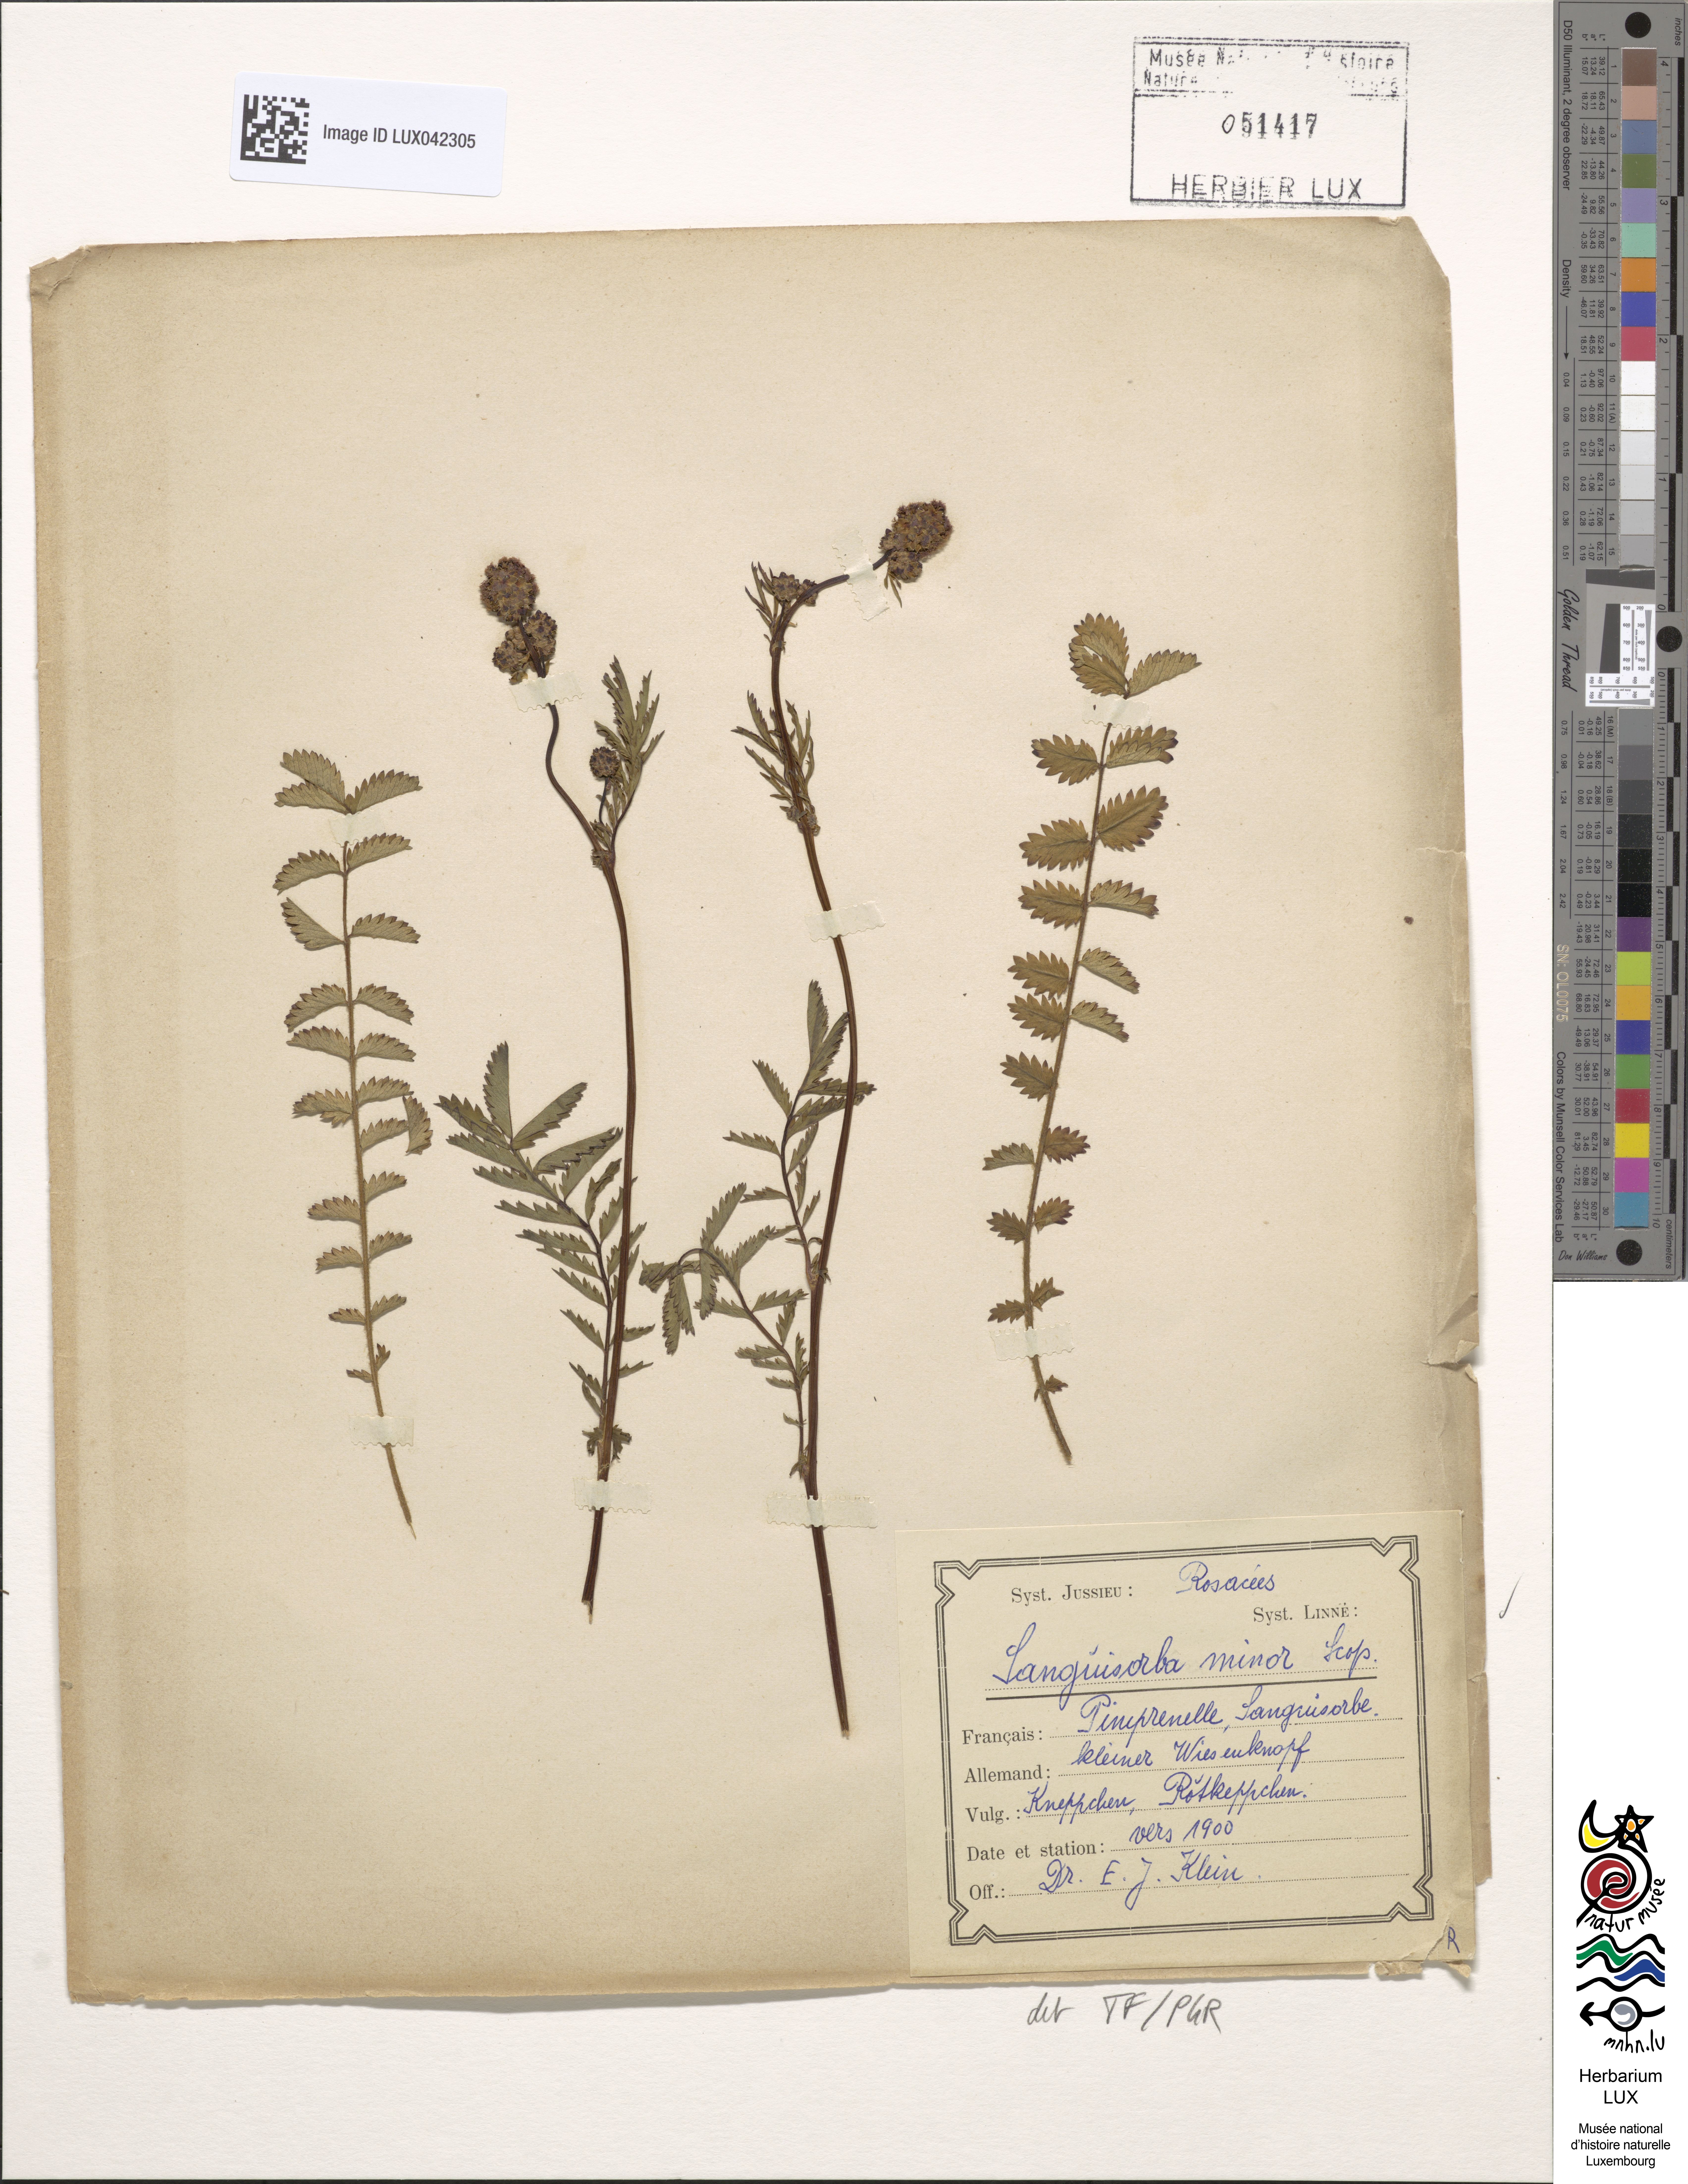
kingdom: Plantae
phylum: Tracheophyta
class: Magnoliopsida
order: Rosales
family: Rosaceae
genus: Poterium
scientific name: Poterium sanguisorba
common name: Salad burnet
